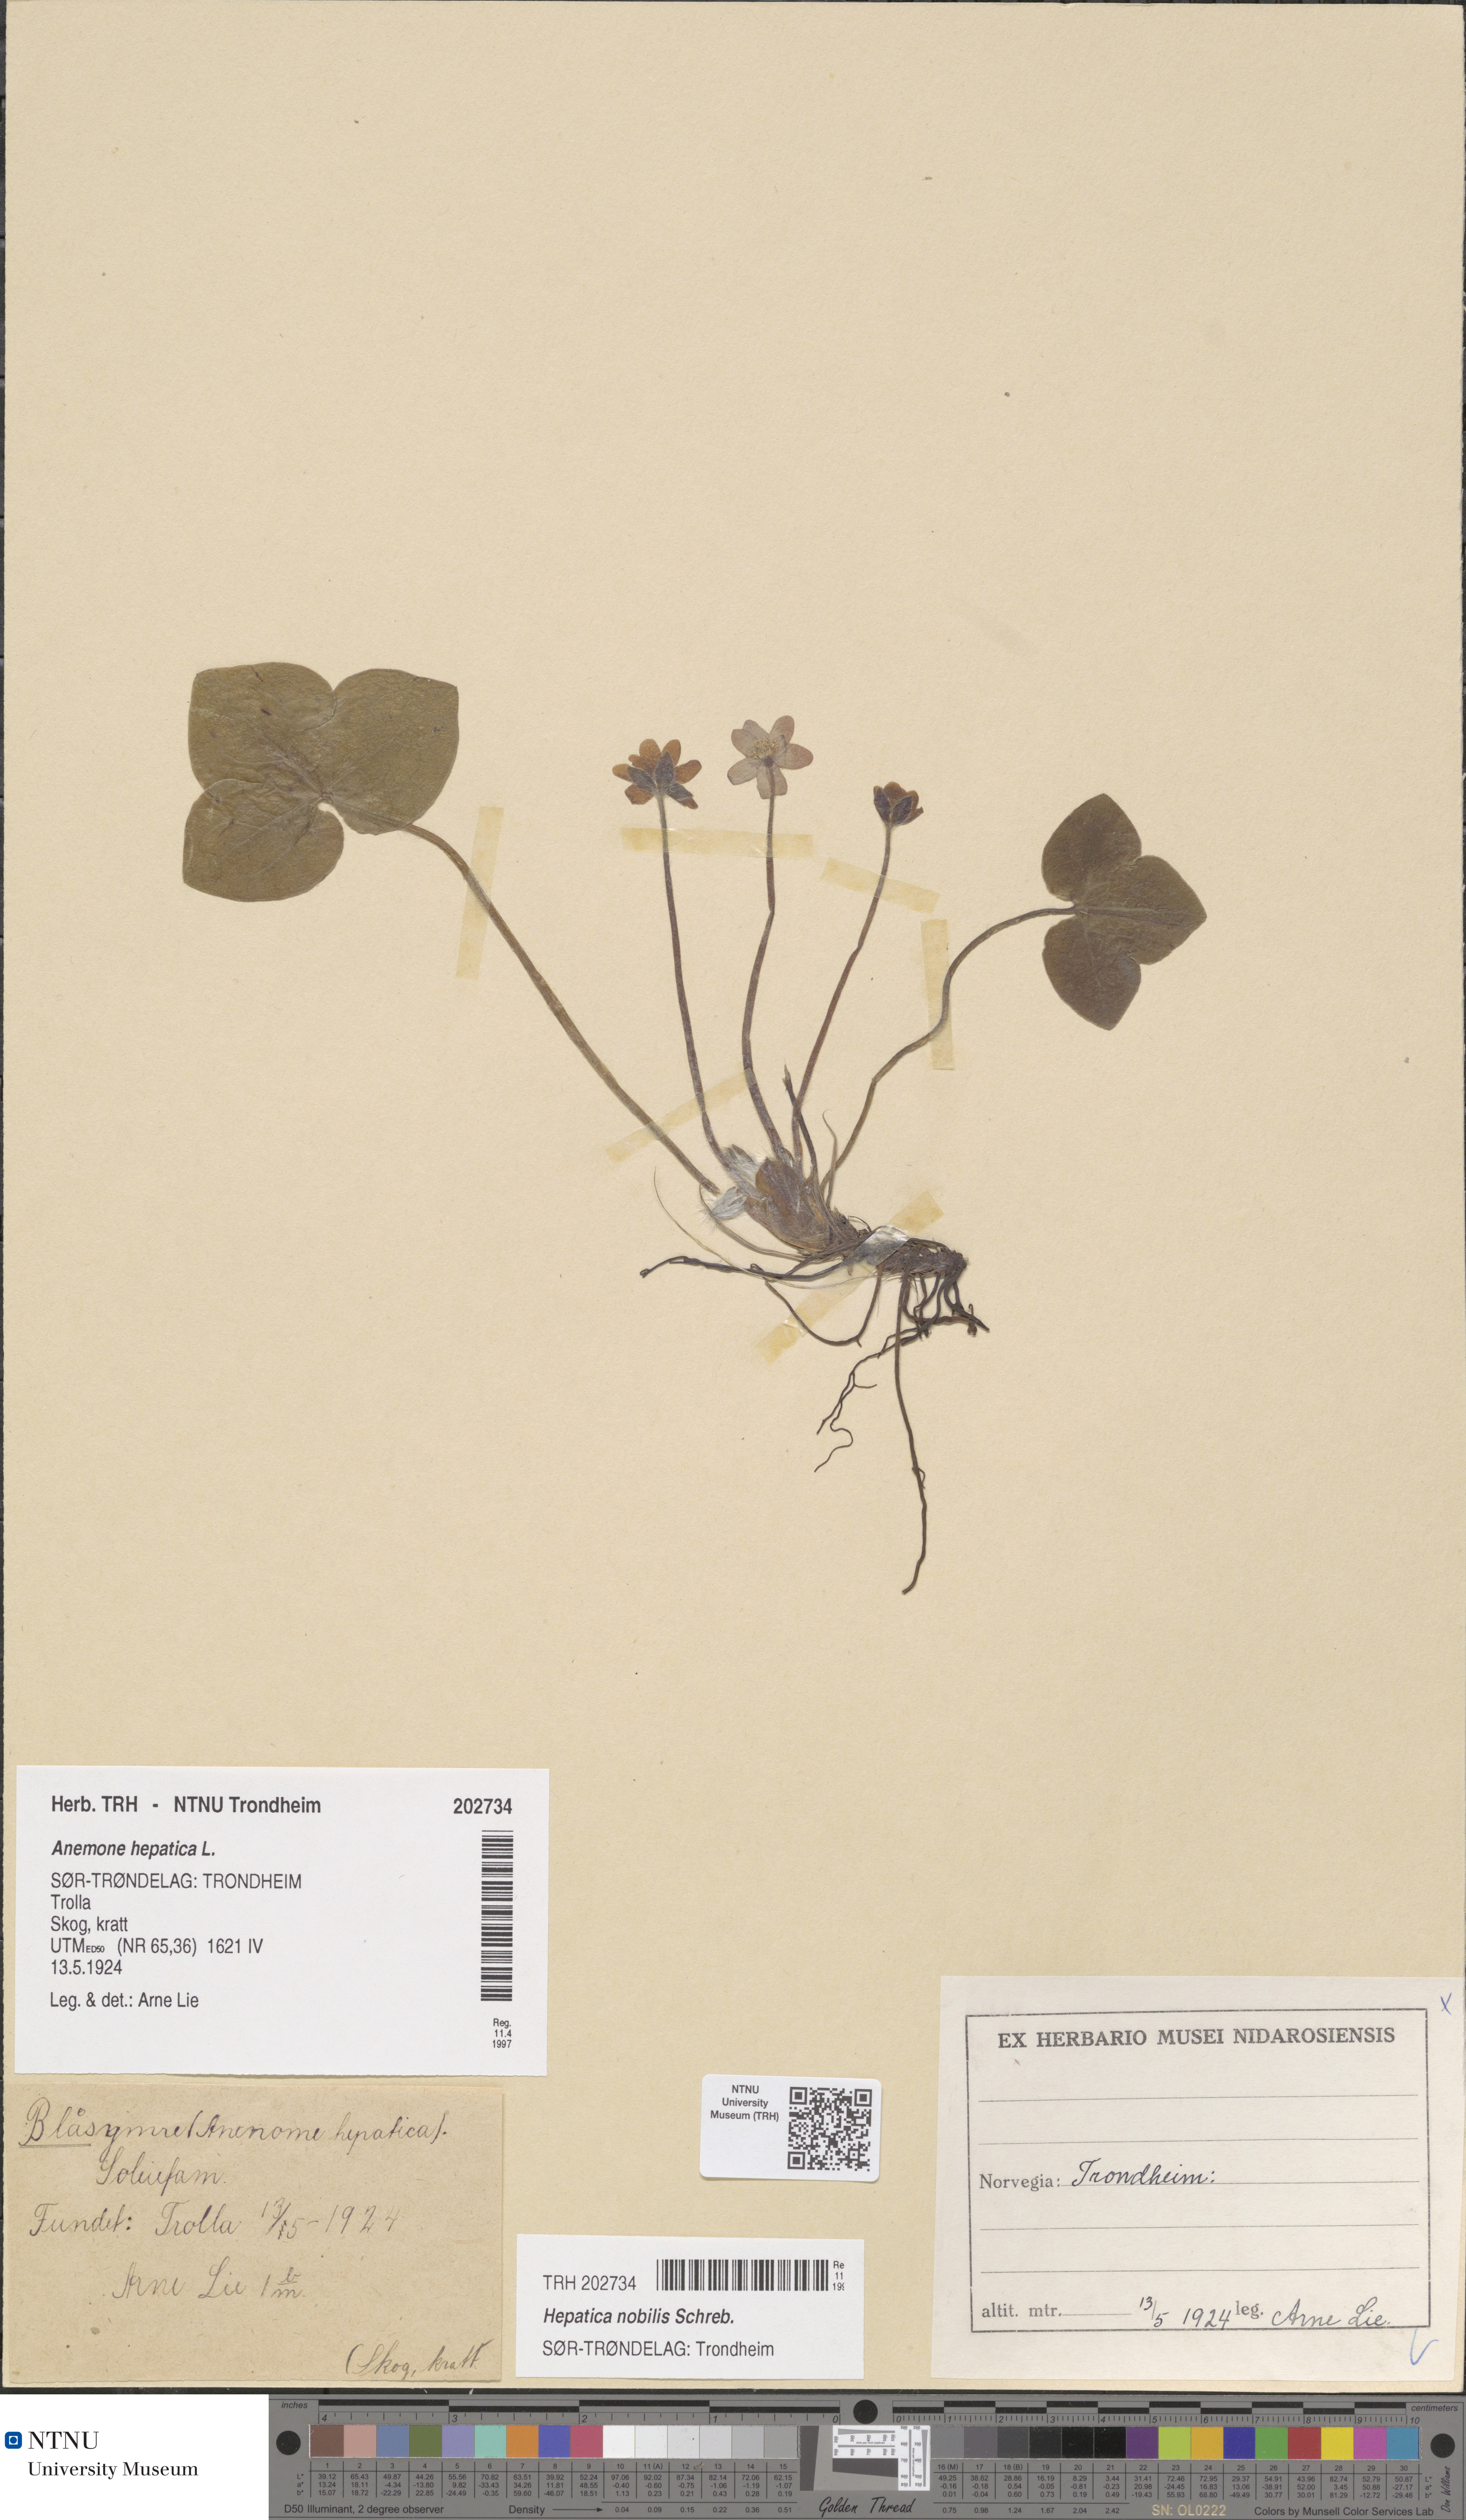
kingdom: Plantae
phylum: Tracheophyta
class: Magnoliopsida
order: Ranunculales
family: Ranunculaceae
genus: Hepatica
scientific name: Hepatica nobilis
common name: Liverleaf
